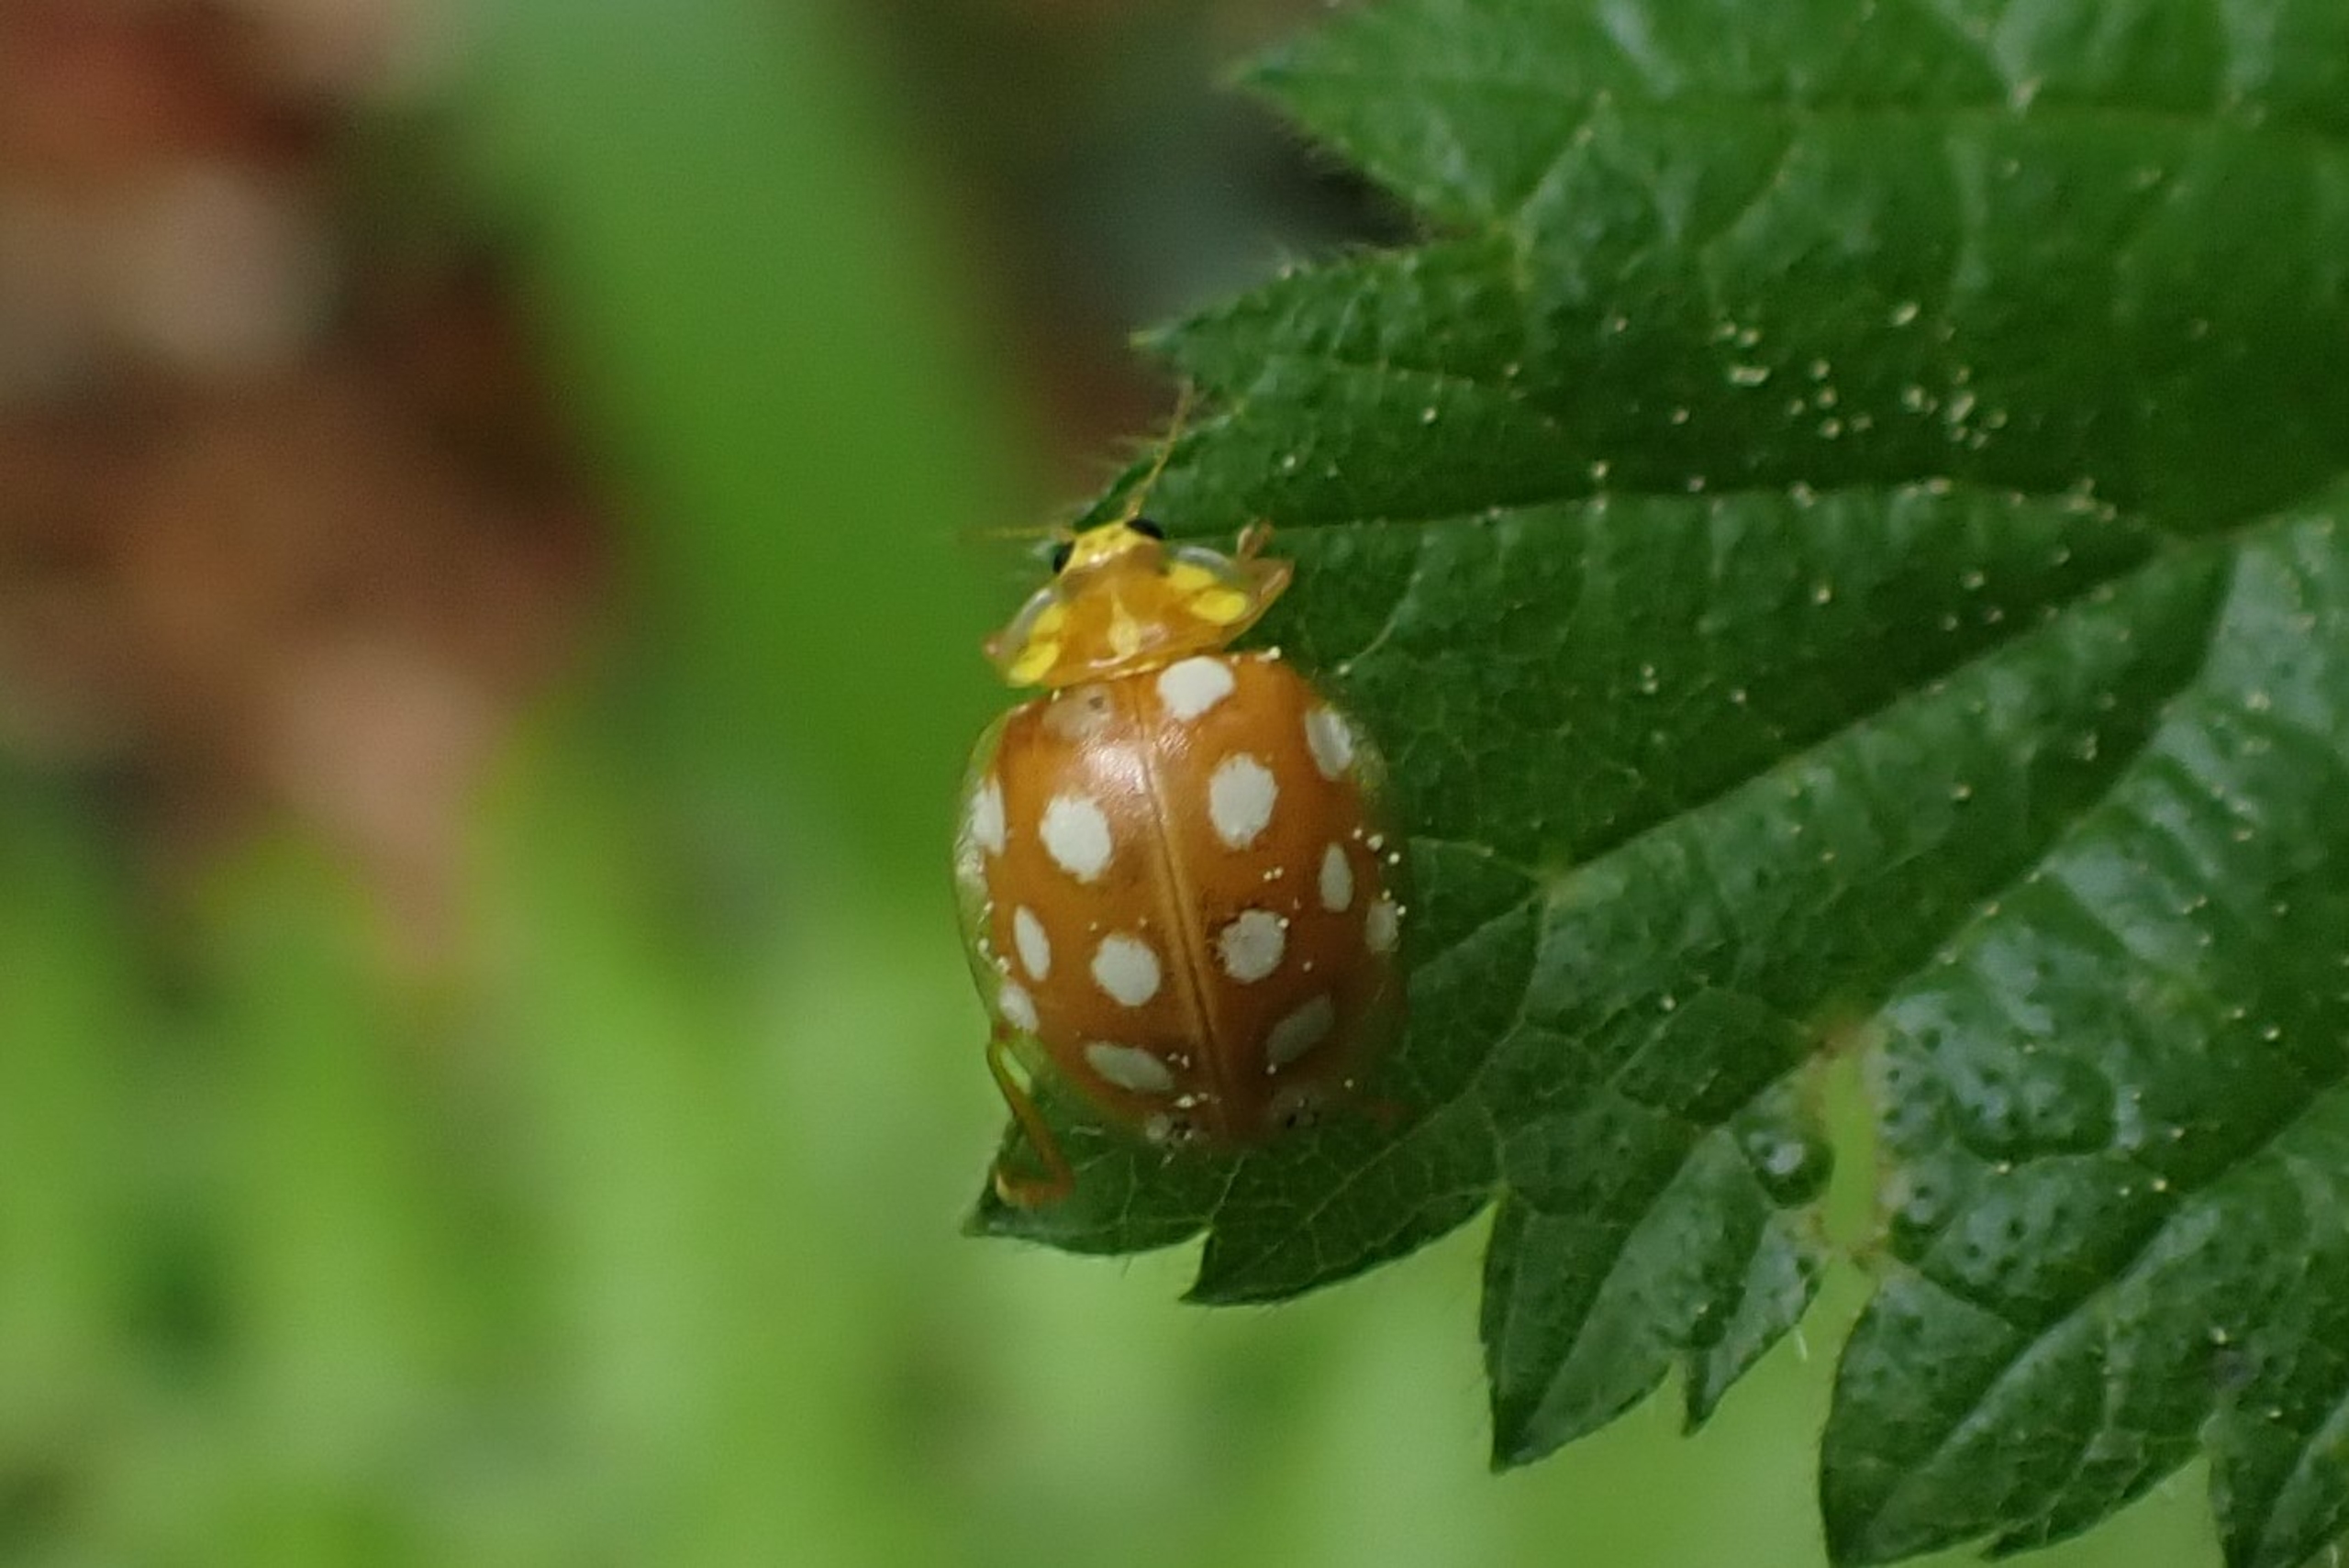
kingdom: Animalia
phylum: Arthropoda
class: Insecta
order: Coleoptera
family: Coccinellidae
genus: Halyzia
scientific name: Halyzia sedecimguttata
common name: Sekstenplettet mariehøne
